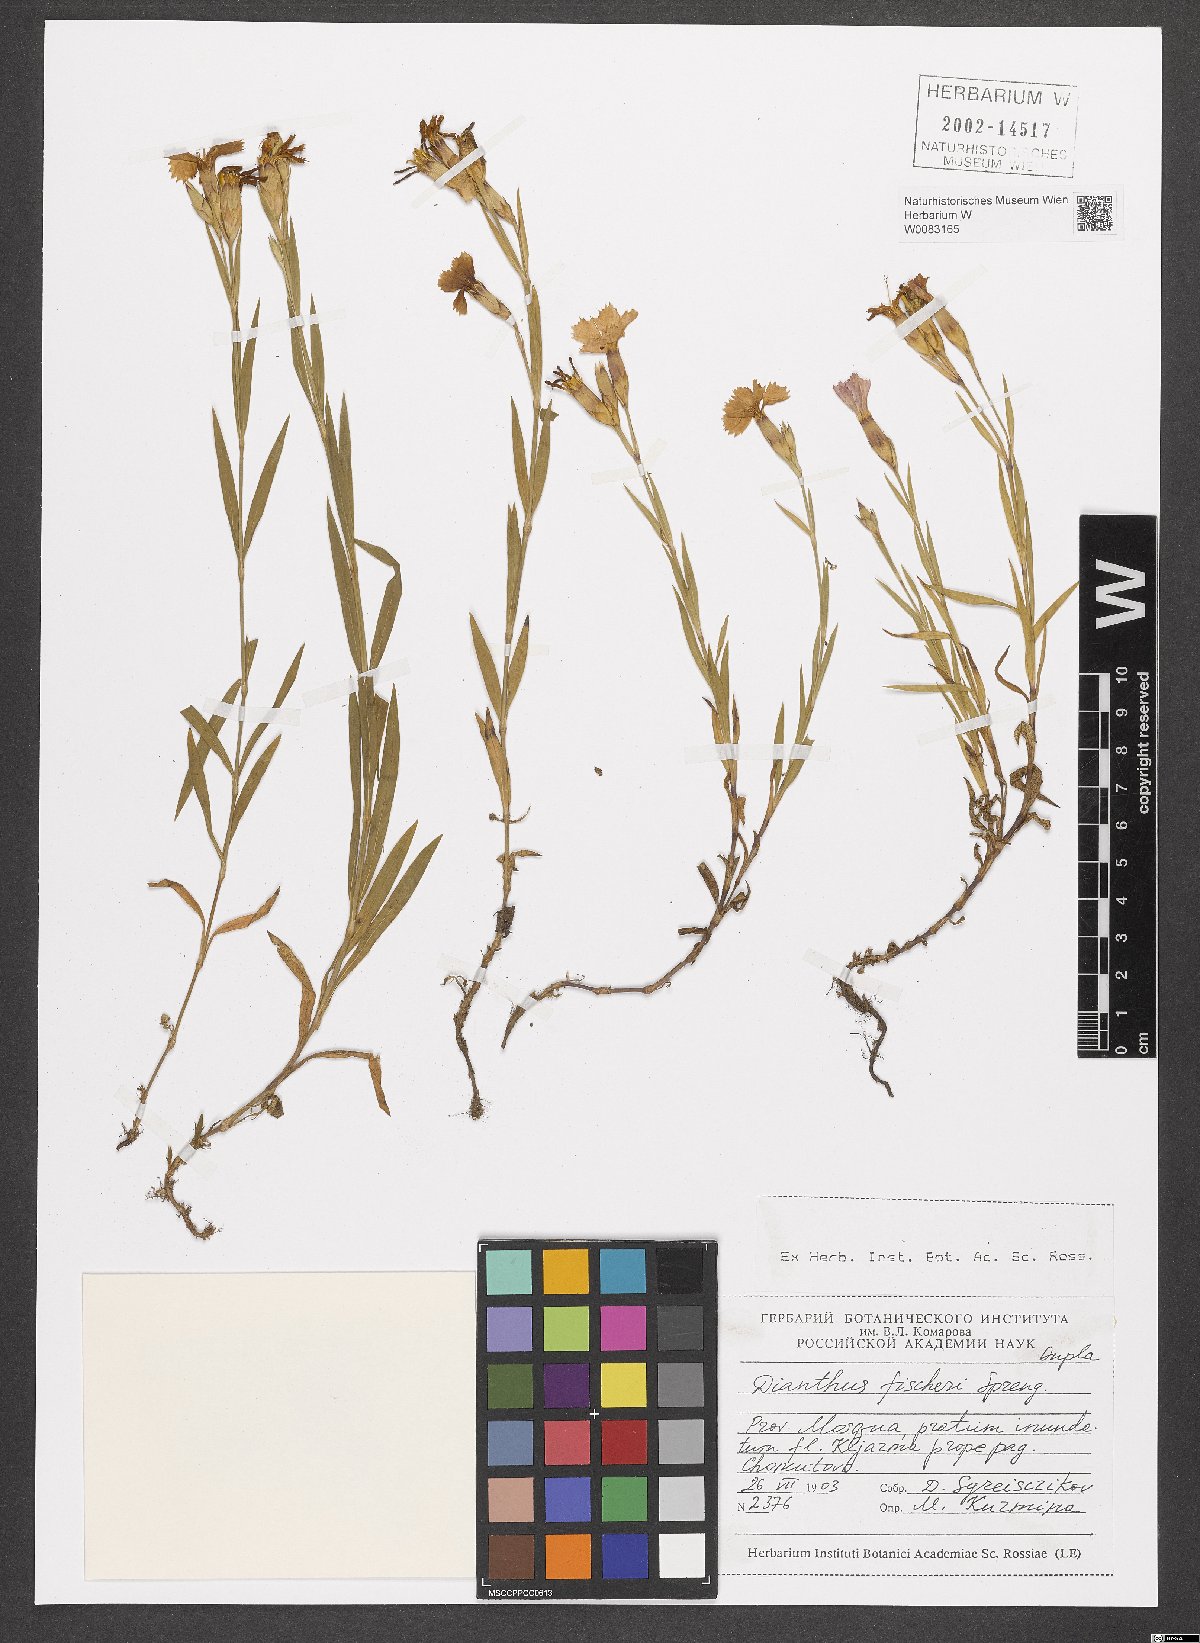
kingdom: Plantae
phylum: Tracheophyta
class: Magnoliopsida
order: Caryophyllales
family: Caryophyllaceae
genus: Dianthus
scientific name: Dianthus chinensis
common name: Rainbow pink
